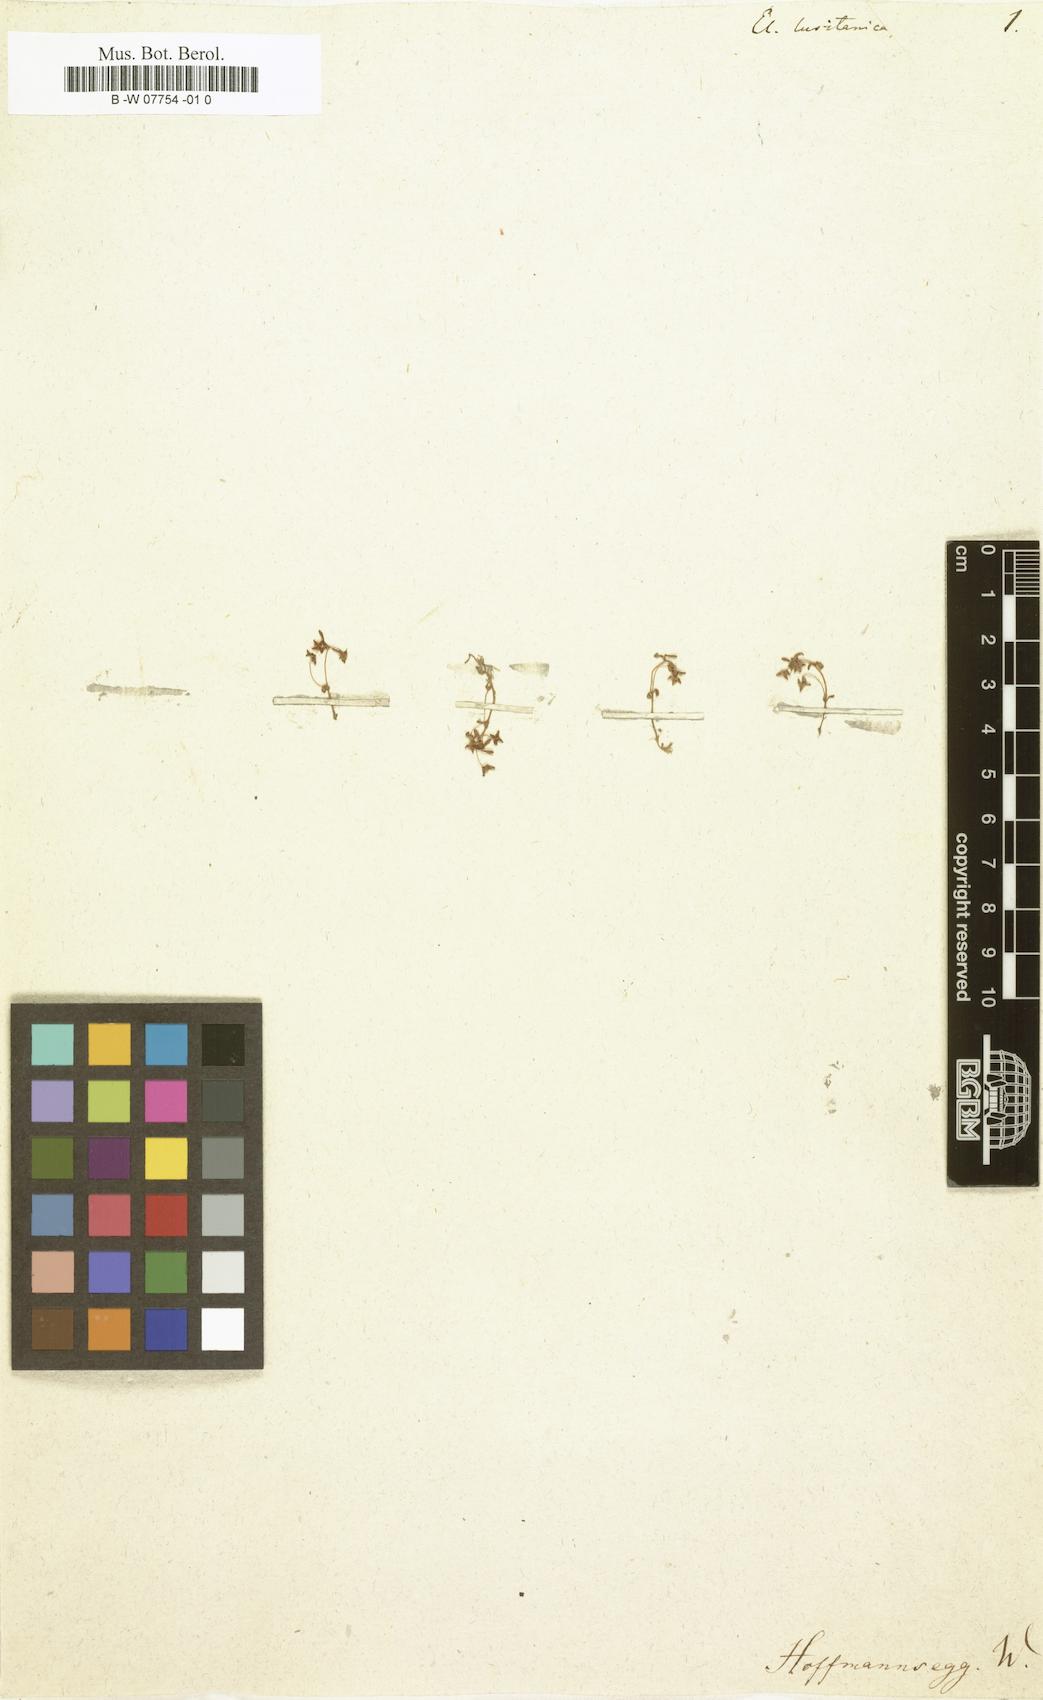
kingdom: Plantae
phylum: Tracheophyta
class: Magnoliopsida
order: Malpighiales
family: Elatinaceae
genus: Elatine
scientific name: Elatine
